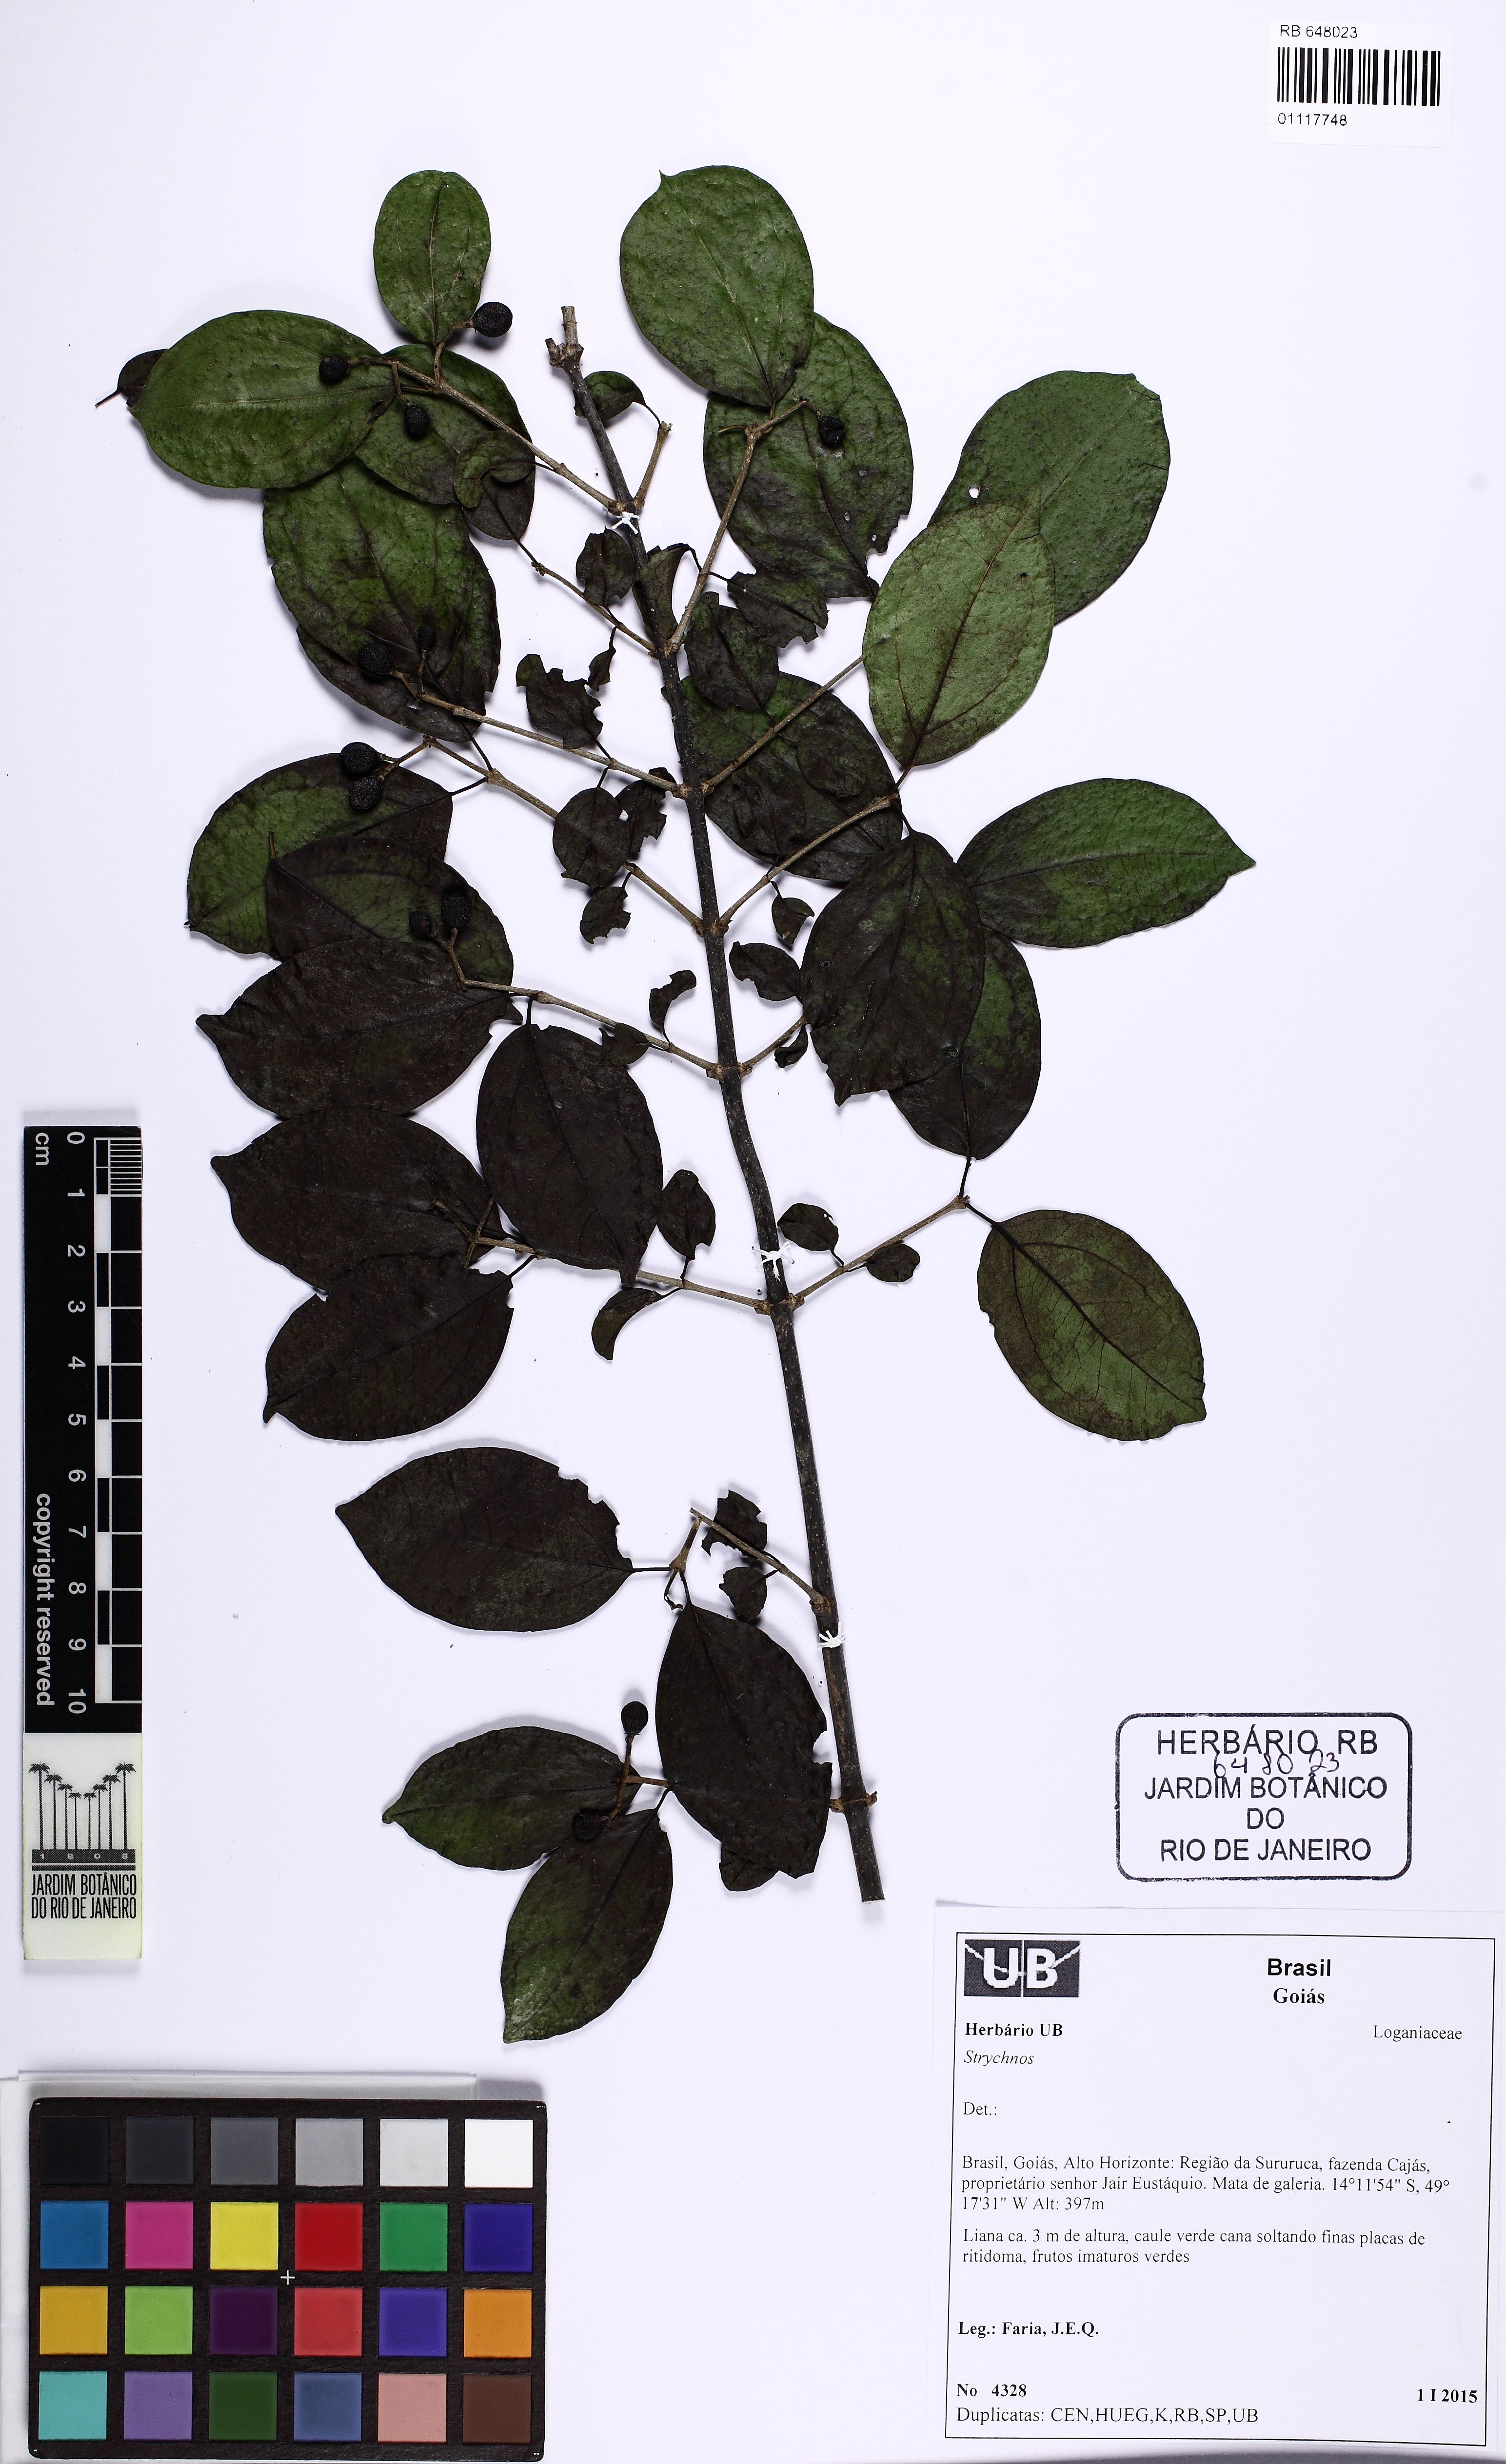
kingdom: Plantae
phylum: Tracheophyta
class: Magnoliopsida
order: Gentianales
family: Loganiaceae
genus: Strychnos
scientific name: Strychnos mattogrossensis
